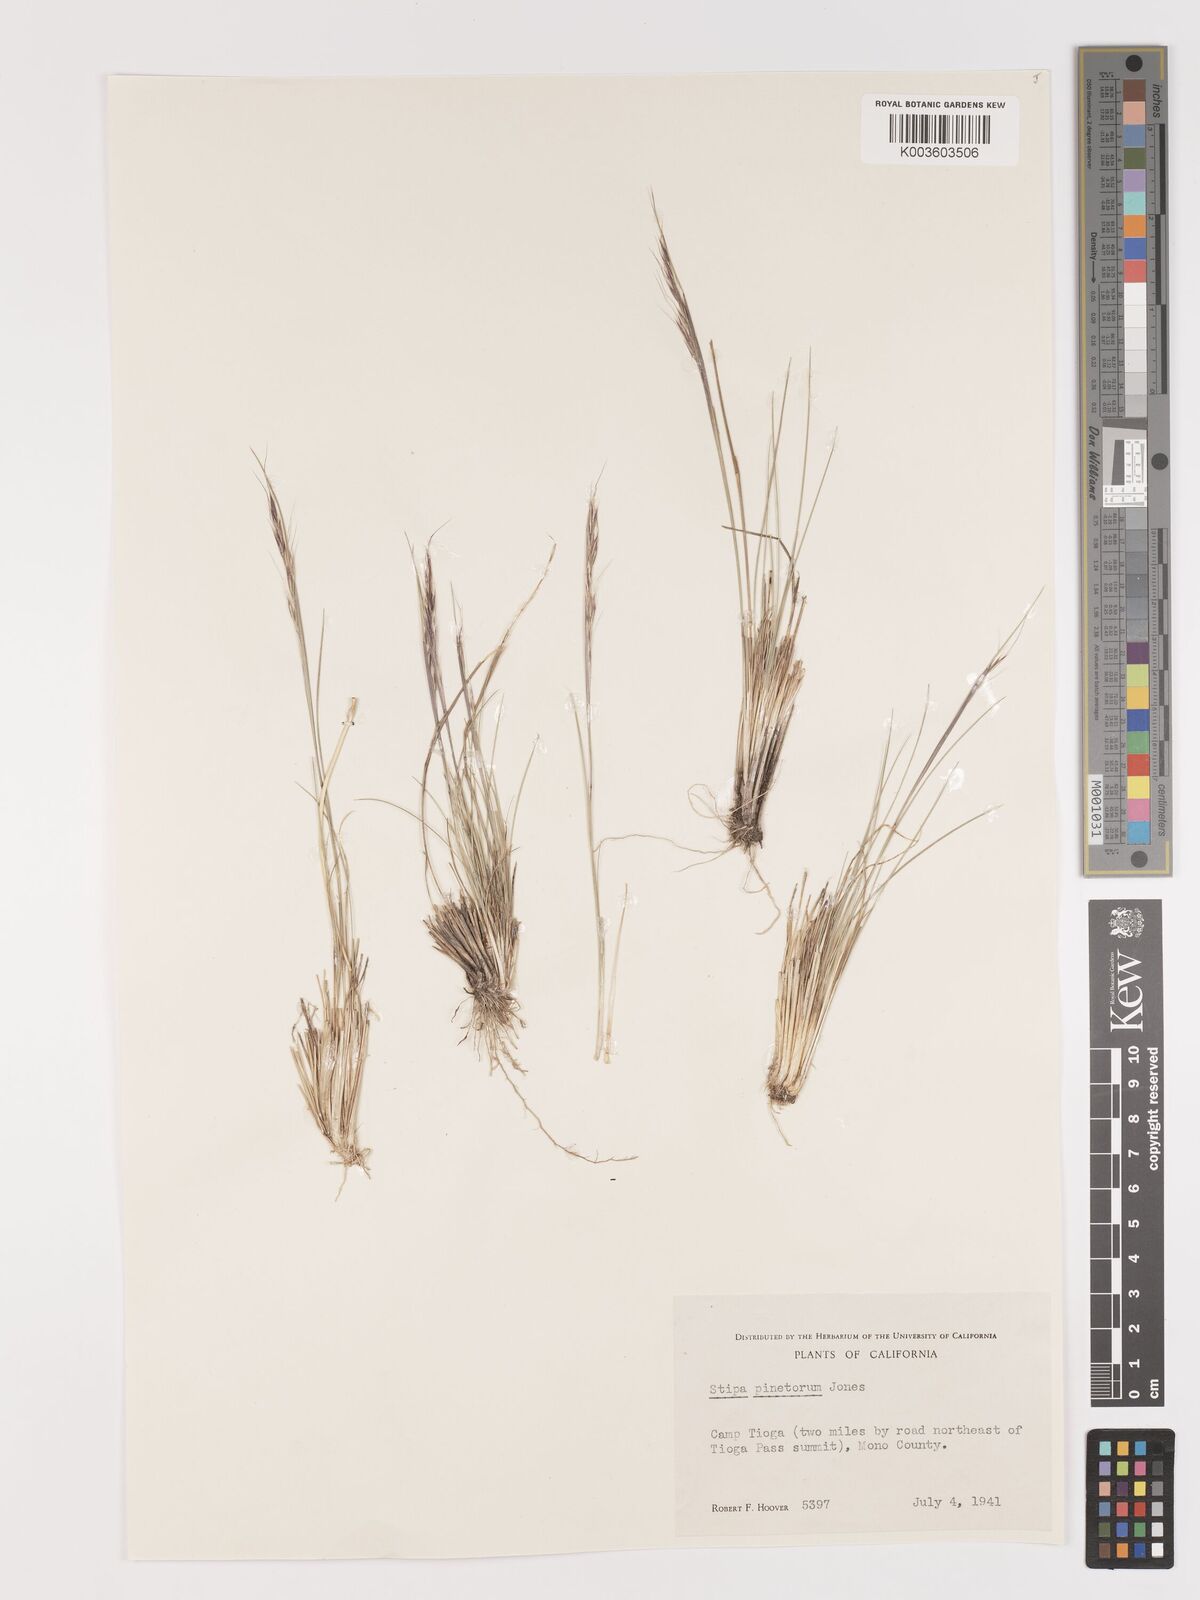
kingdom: Plantae
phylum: Tracheophyta
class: Liliopsida
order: Poales
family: Poaceae
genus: Eriocoma
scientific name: Eriocoma pinetorum
